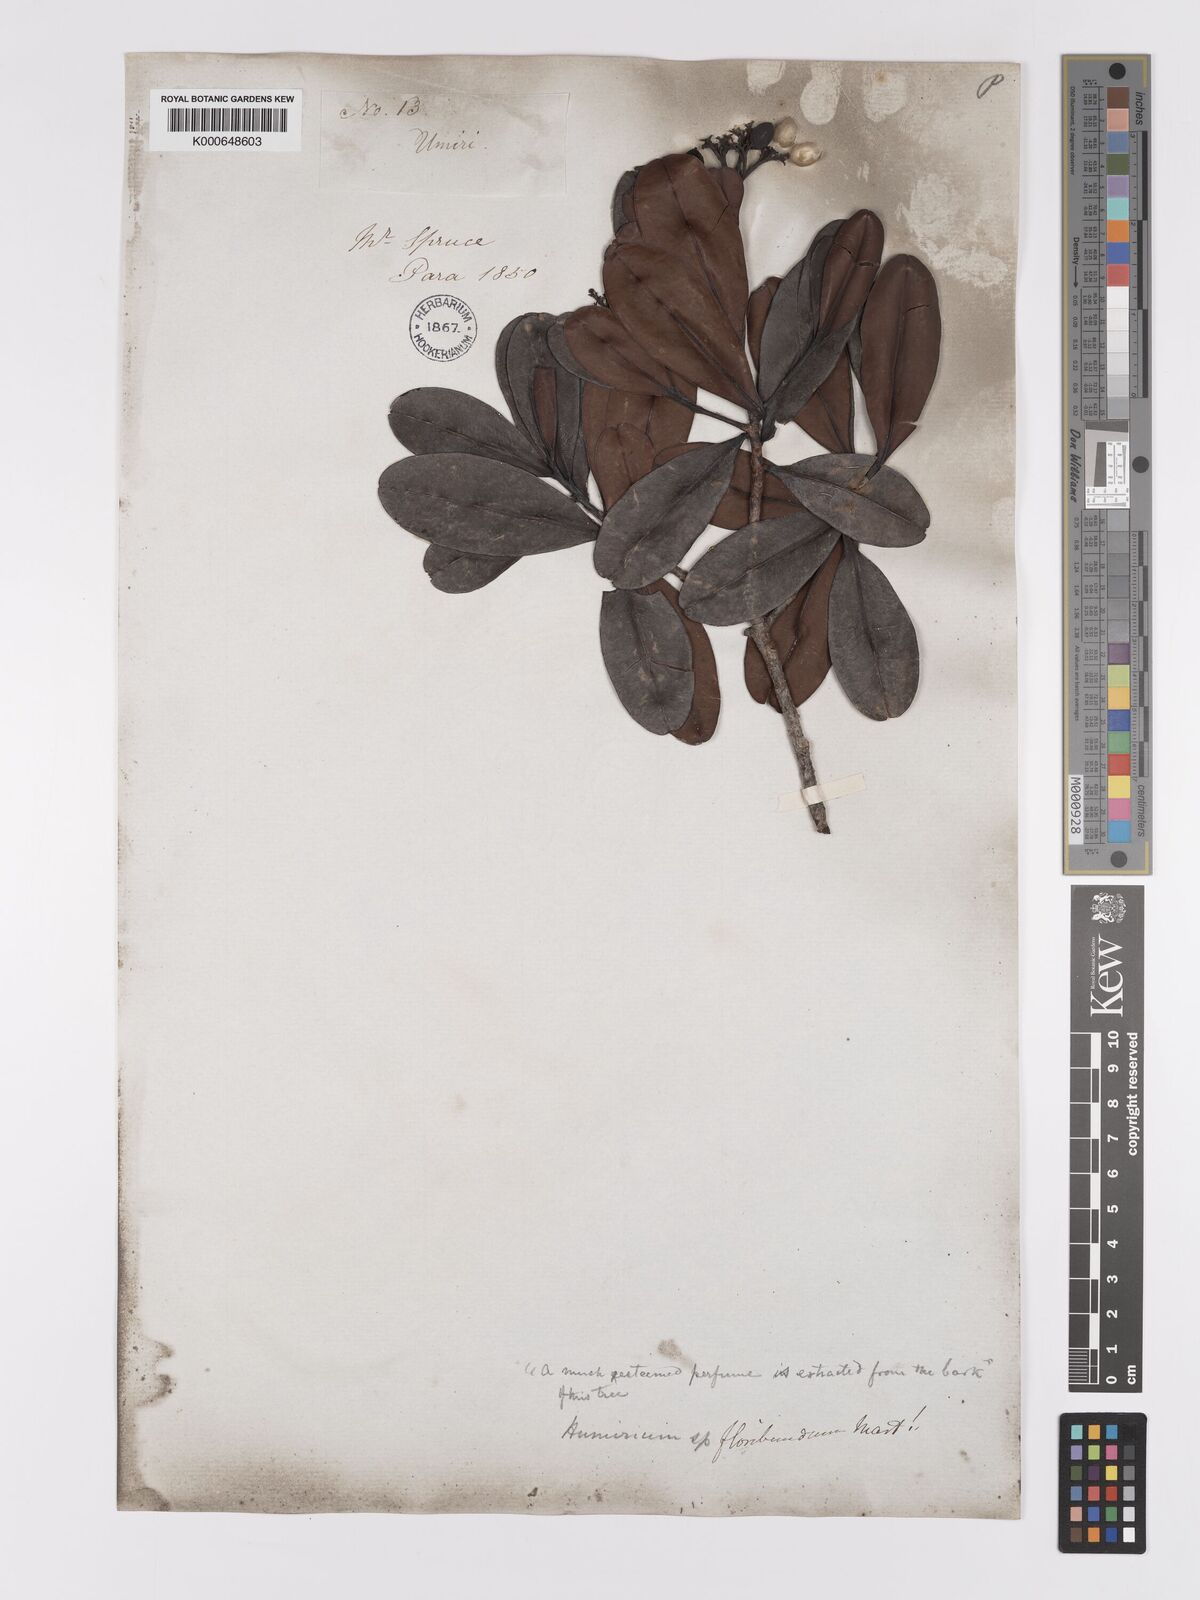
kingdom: Plantae
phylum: Tracheophyta
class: Magnoliopsida
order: Malpighiales
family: Humiriaceae
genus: Humiria
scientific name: Humiria balsamifera
